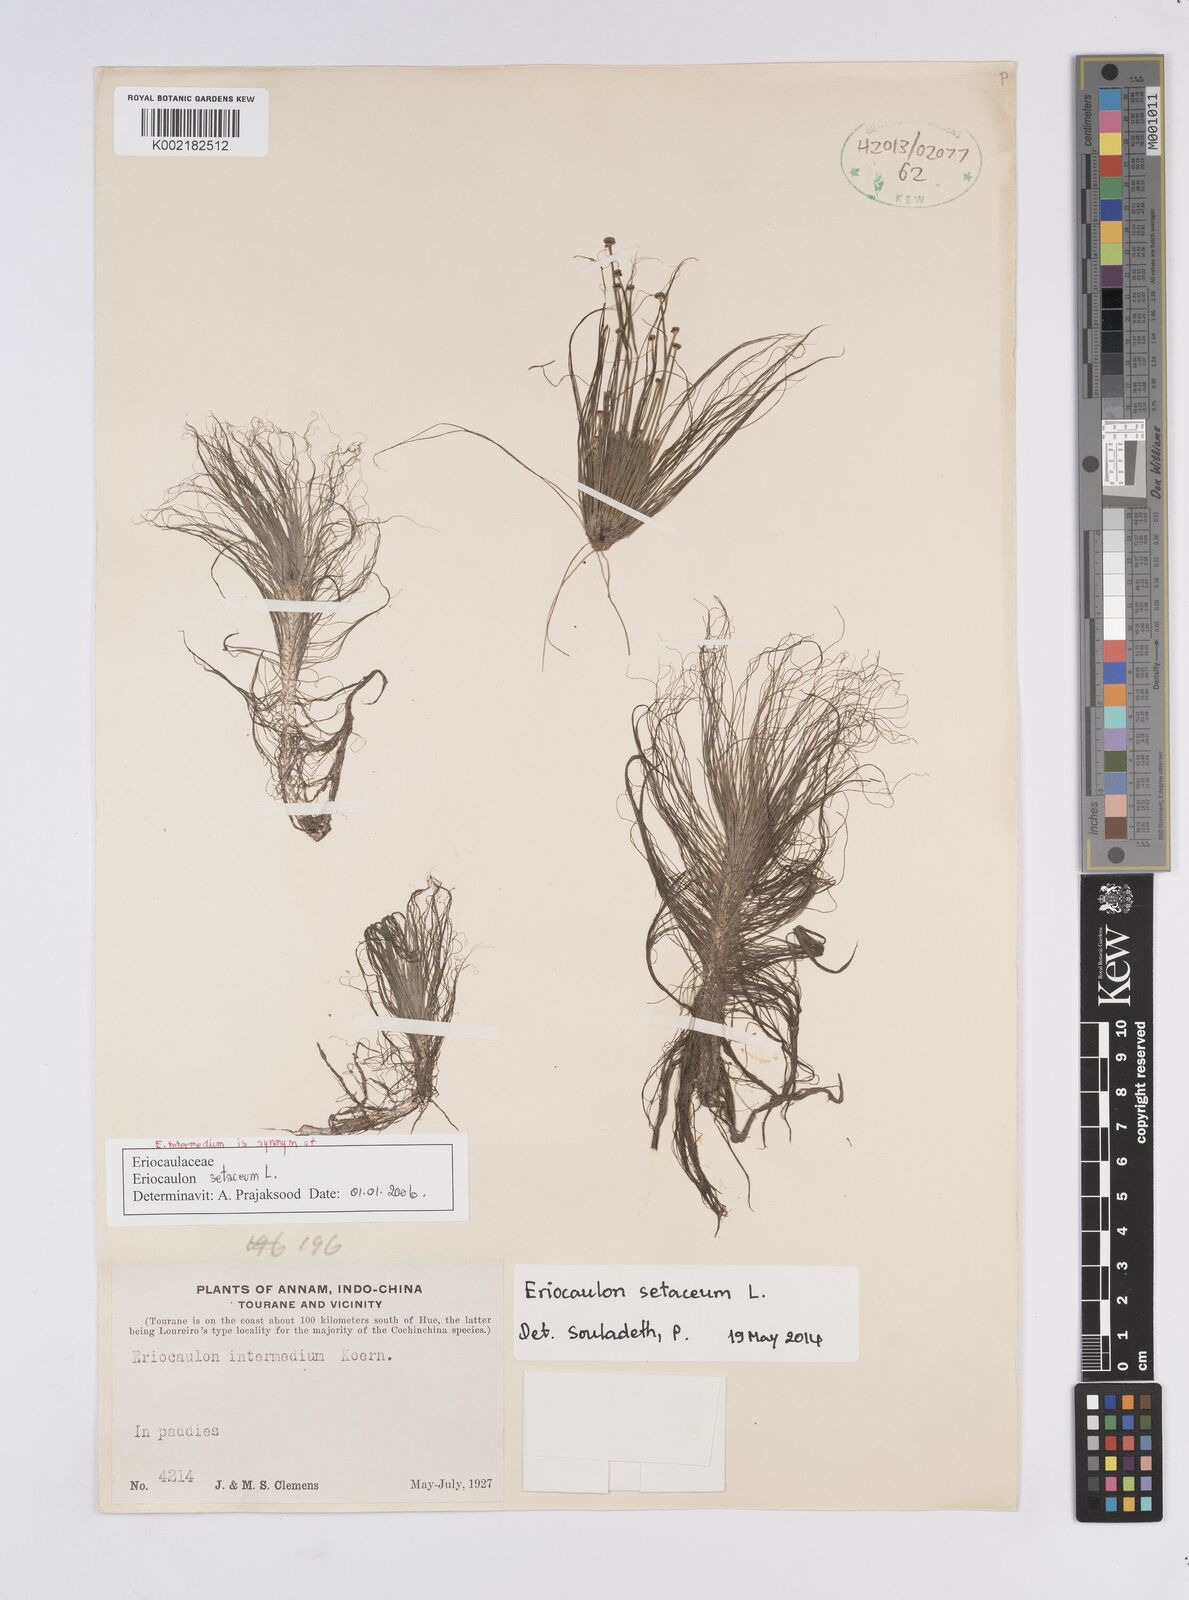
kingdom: Plantae
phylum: Tracheophyta
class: Liliopsida
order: Poales
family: Eriocaulaceae
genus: Eriocaulon
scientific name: Eriocaulon setaceum
